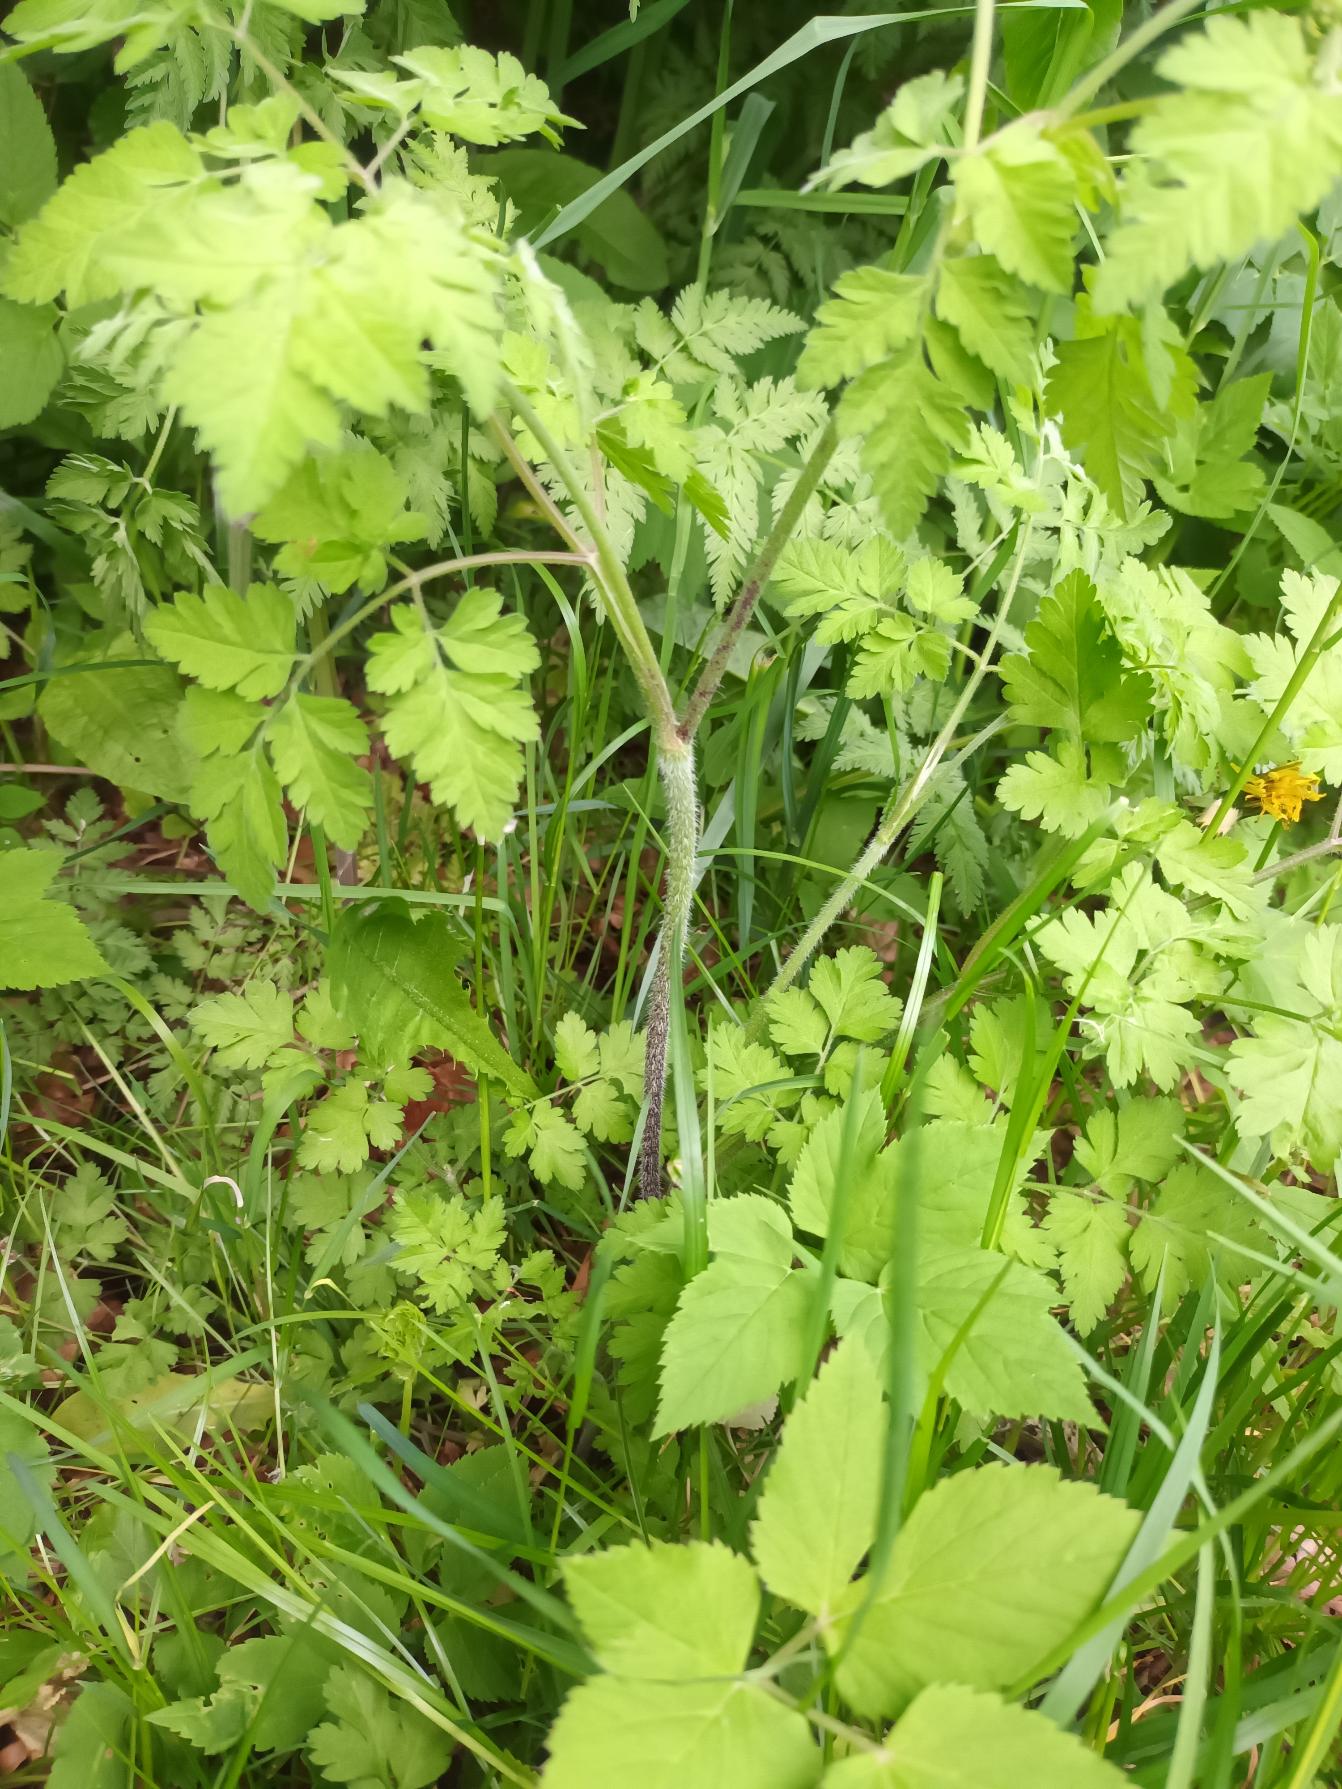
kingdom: Plantae
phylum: Tracheophyta
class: Magnoliopsida
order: Apiales
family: Apiaceae
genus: Chaerophyllum
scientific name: Chaerophyllum temulum
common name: Almindelig hulsvøb
